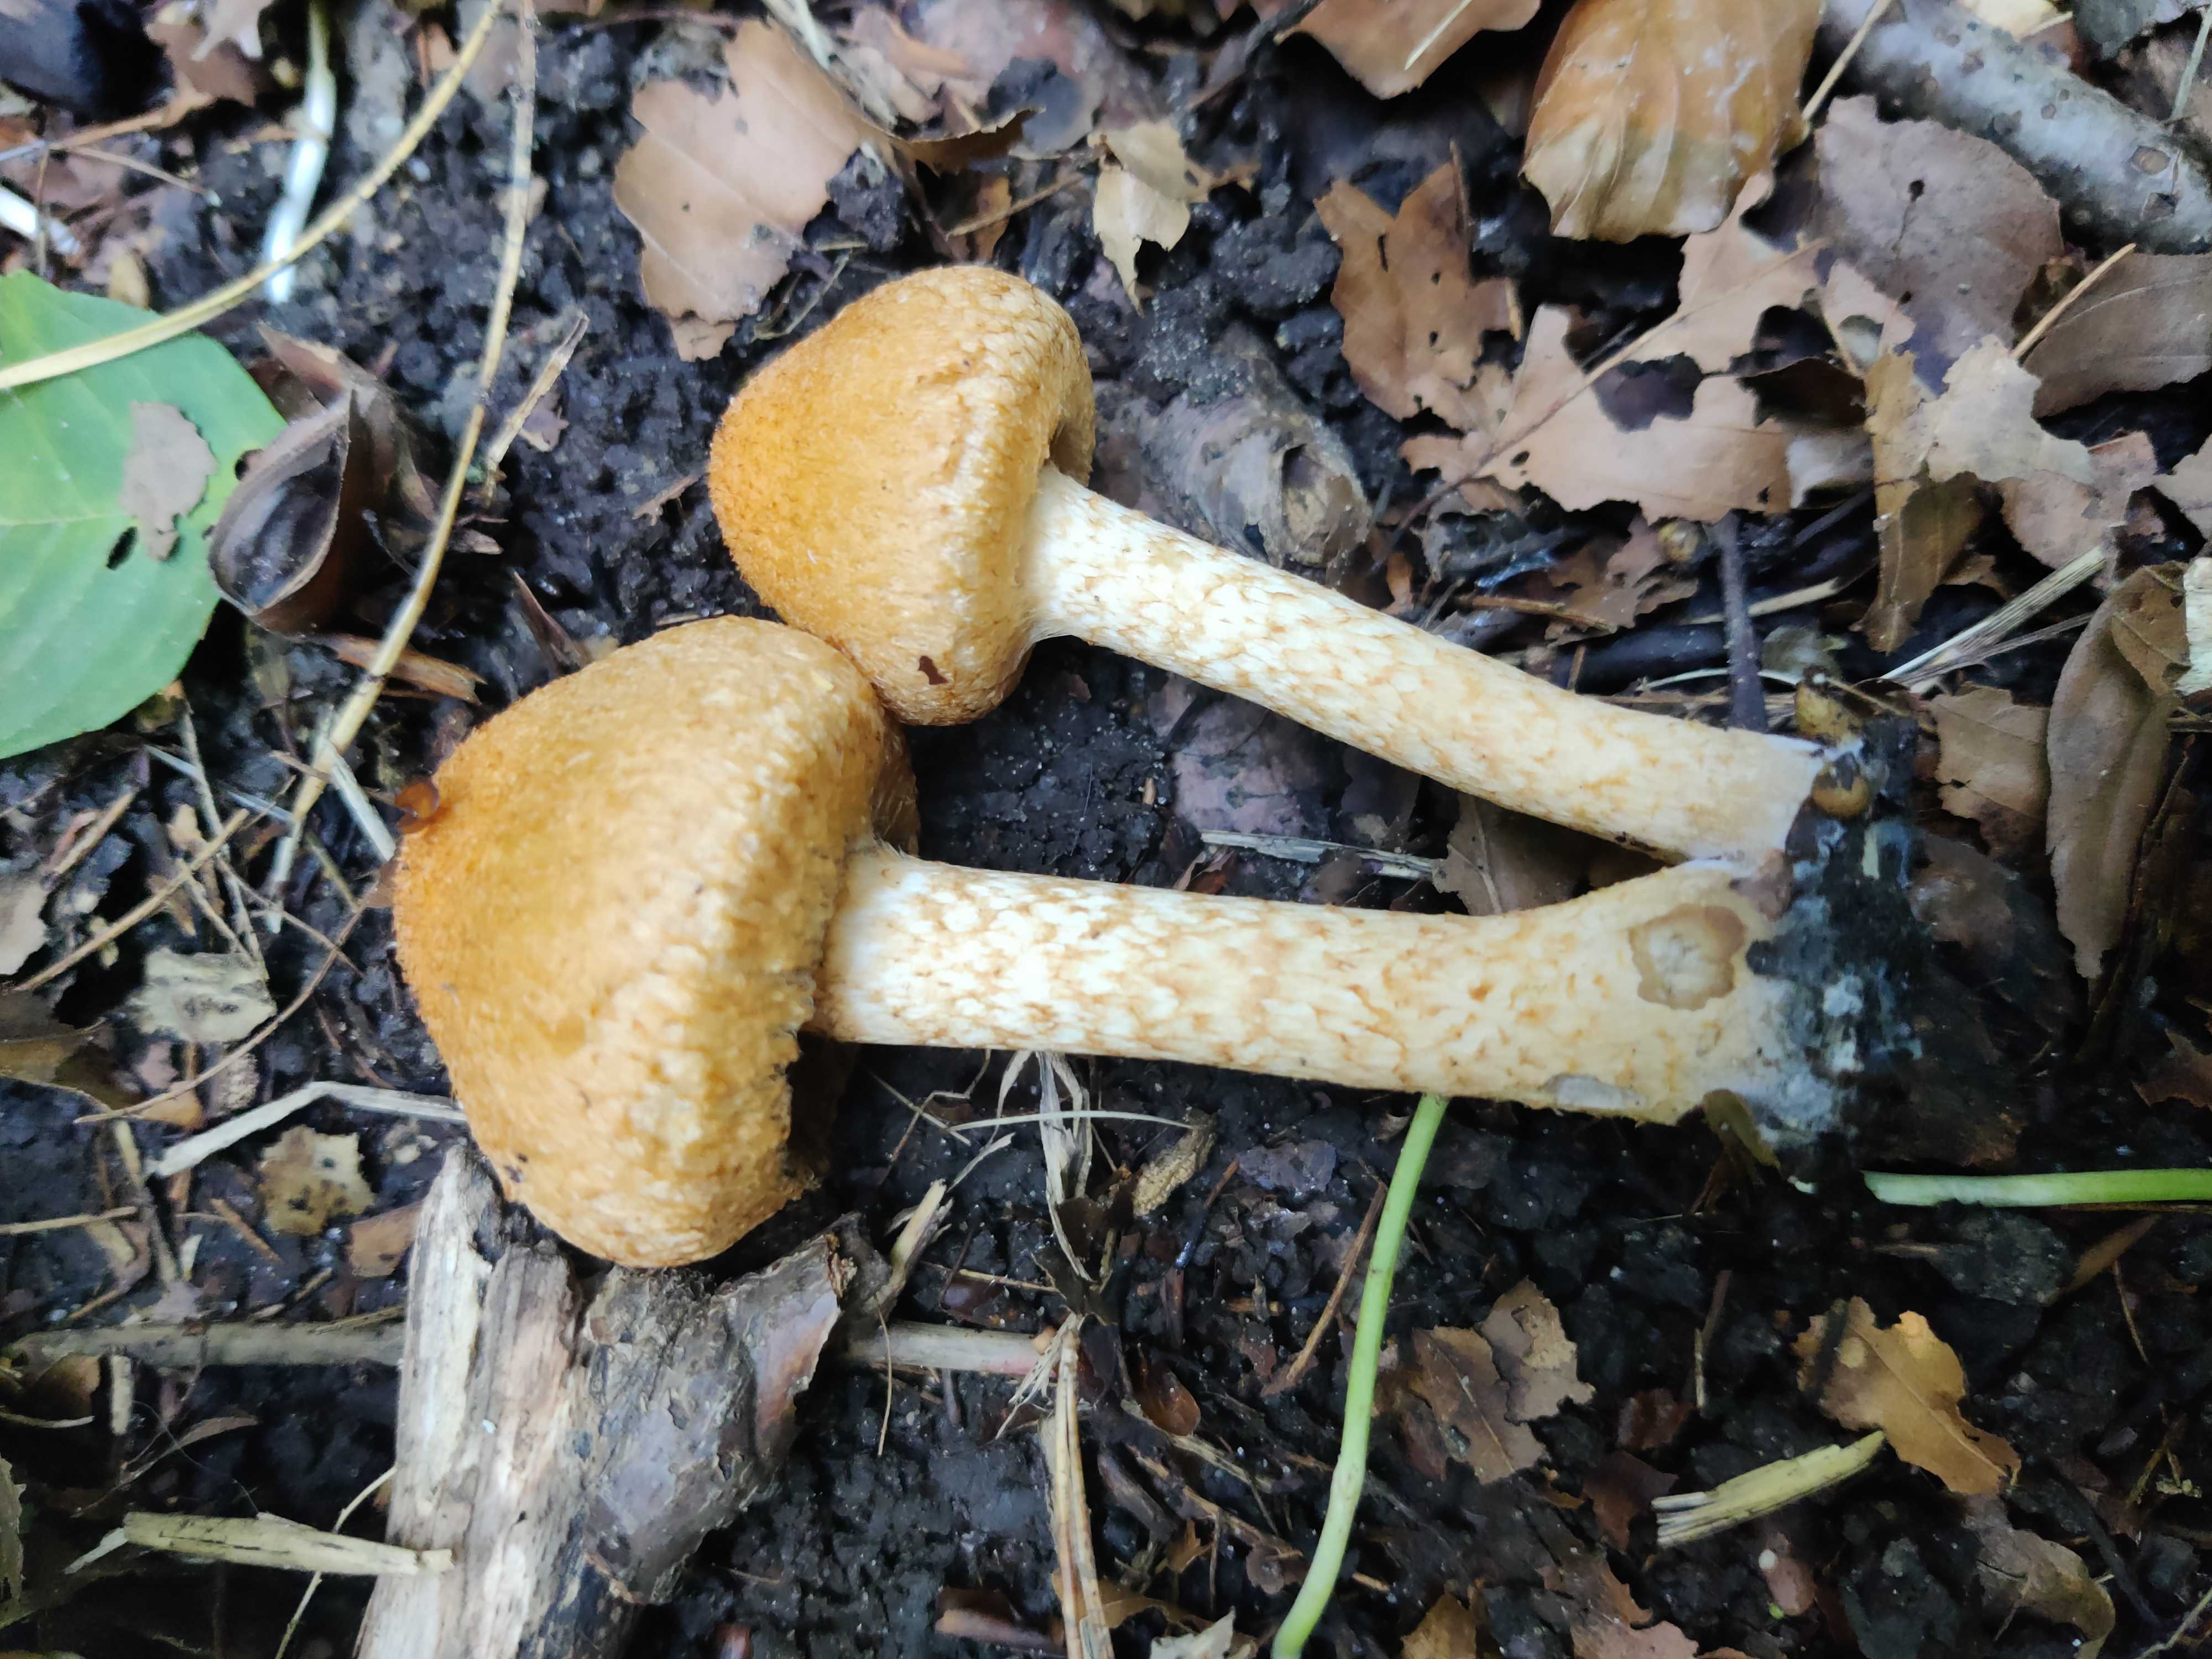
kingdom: Fungi
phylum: Basidiomycota
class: Agaricomycetes
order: Agaricales
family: Psathyrellaceae
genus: Lacrymaria
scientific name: Lacrymaria pyrotricha
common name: ildhåret mørkhat
